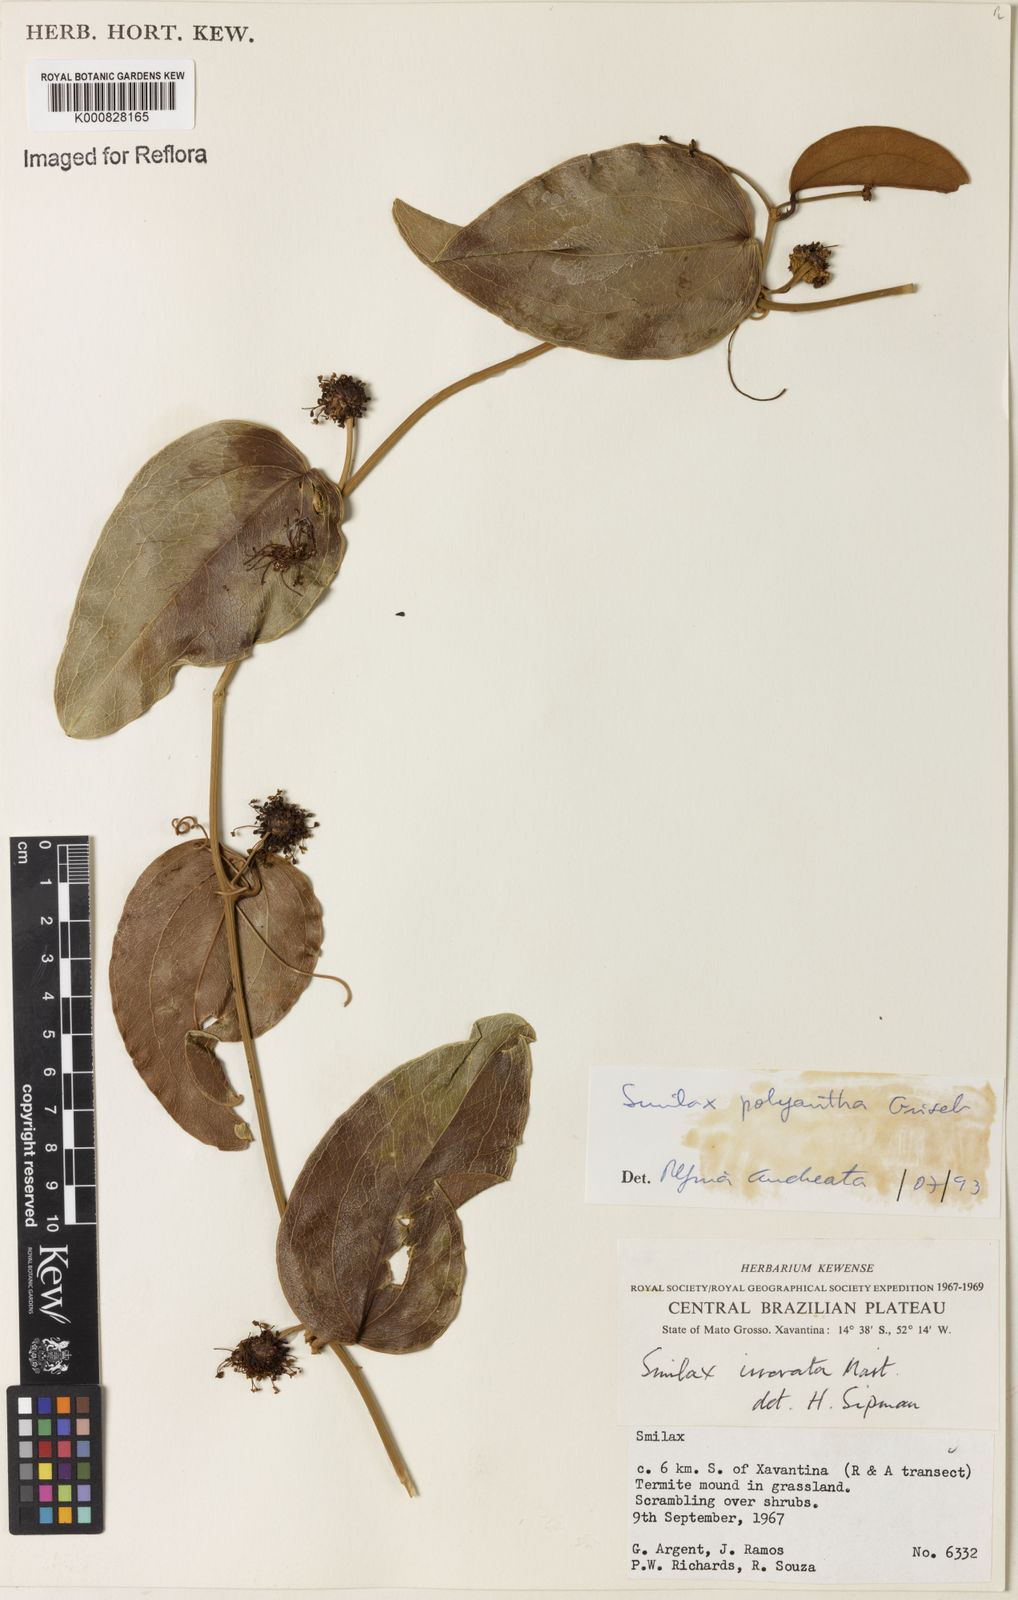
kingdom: Plantae
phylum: Tracheophyta
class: Liliopsida
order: Liliales
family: Smilacaceae
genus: Smilax
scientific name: Smilax polyantha
